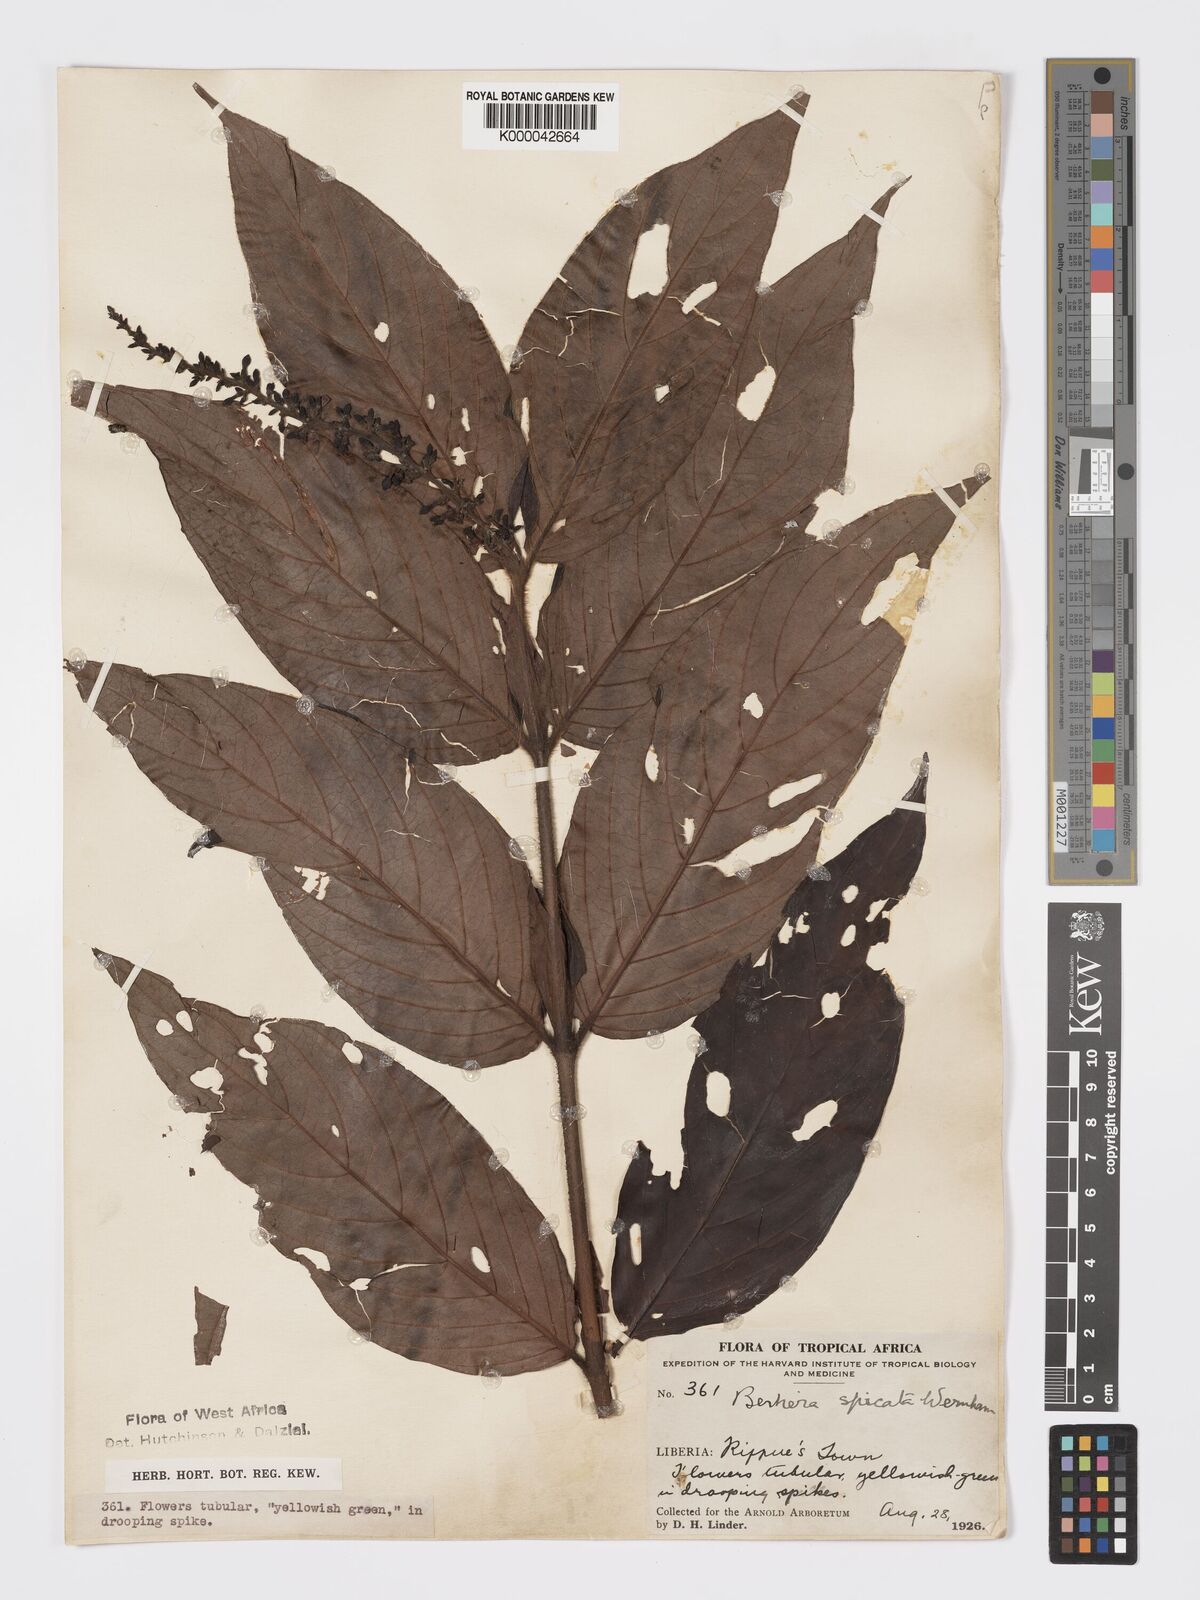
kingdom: Plantae
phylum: Tracheophyta
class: Magnoliopsida
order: Gentianales
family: Rubiaceae
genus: Bertiera
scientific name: Bertiera
